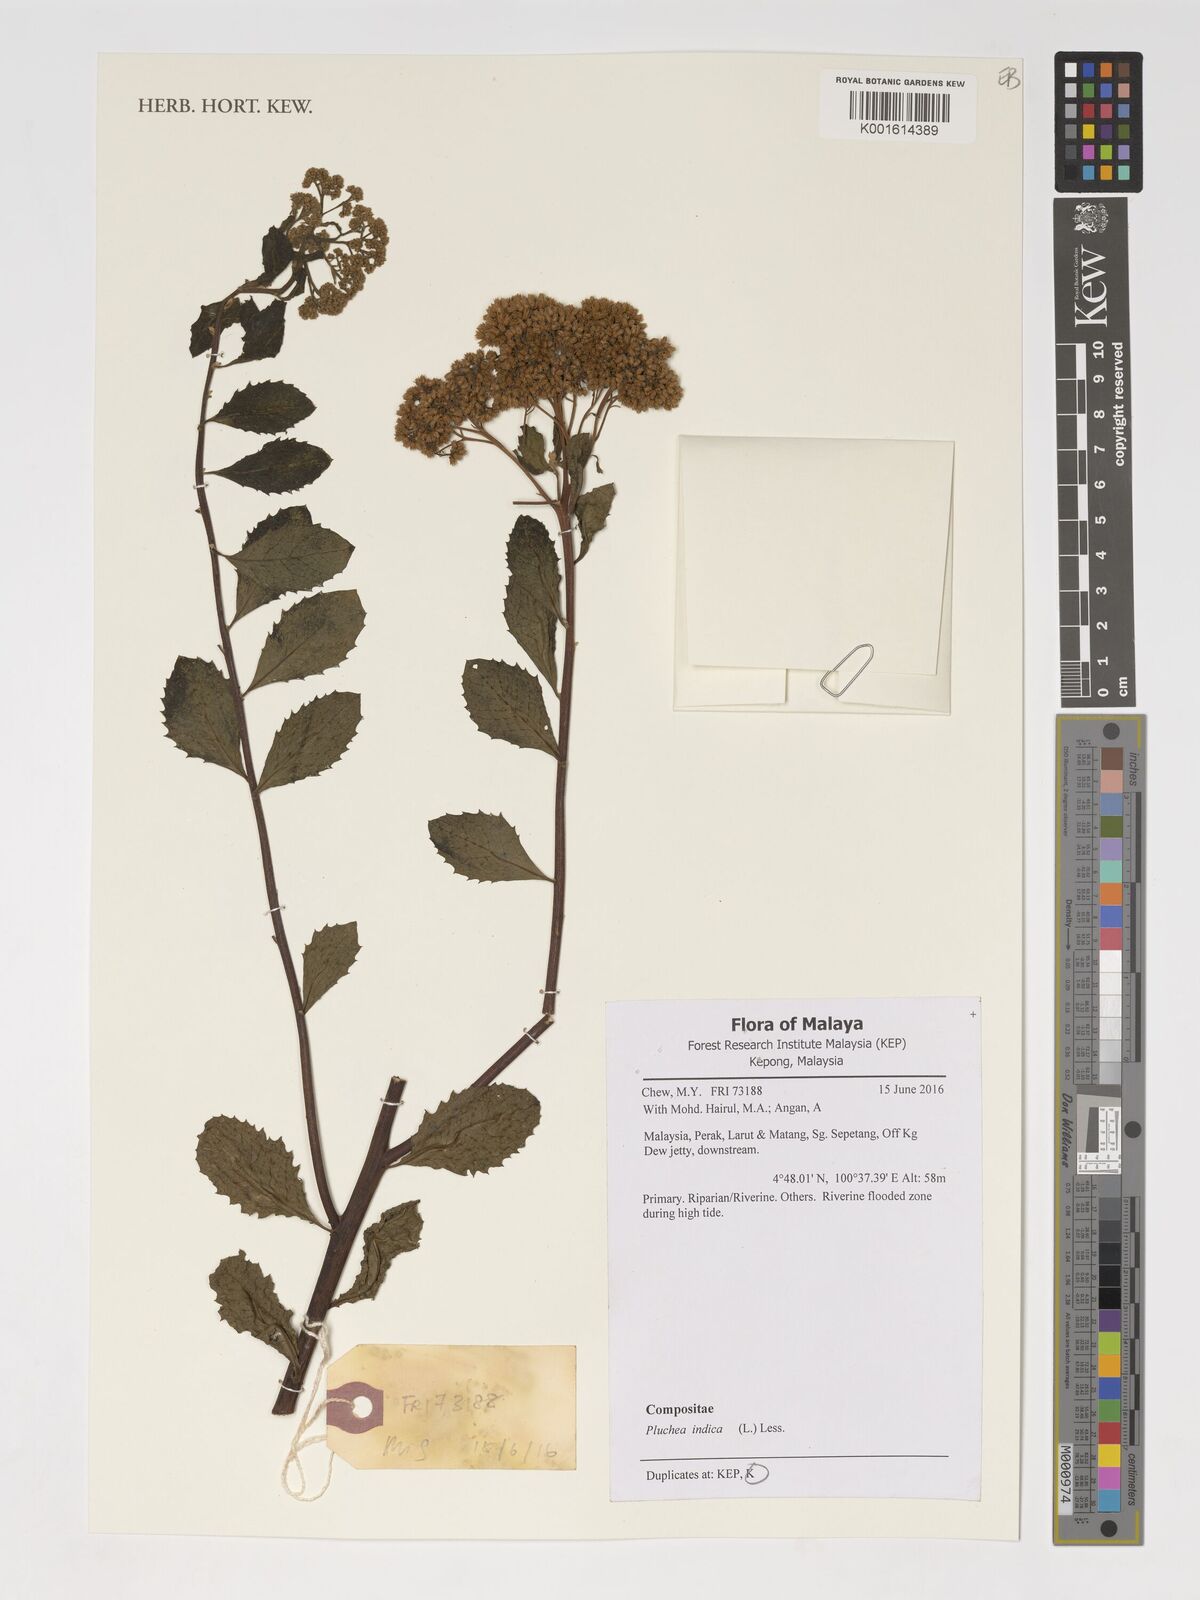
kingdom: Plantae
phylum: Tracheophyta
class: Magnoliopsida
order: Asterales
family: Asteraceae
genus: Pluchea
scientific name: Pluchea indica
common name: Indian fleabane
